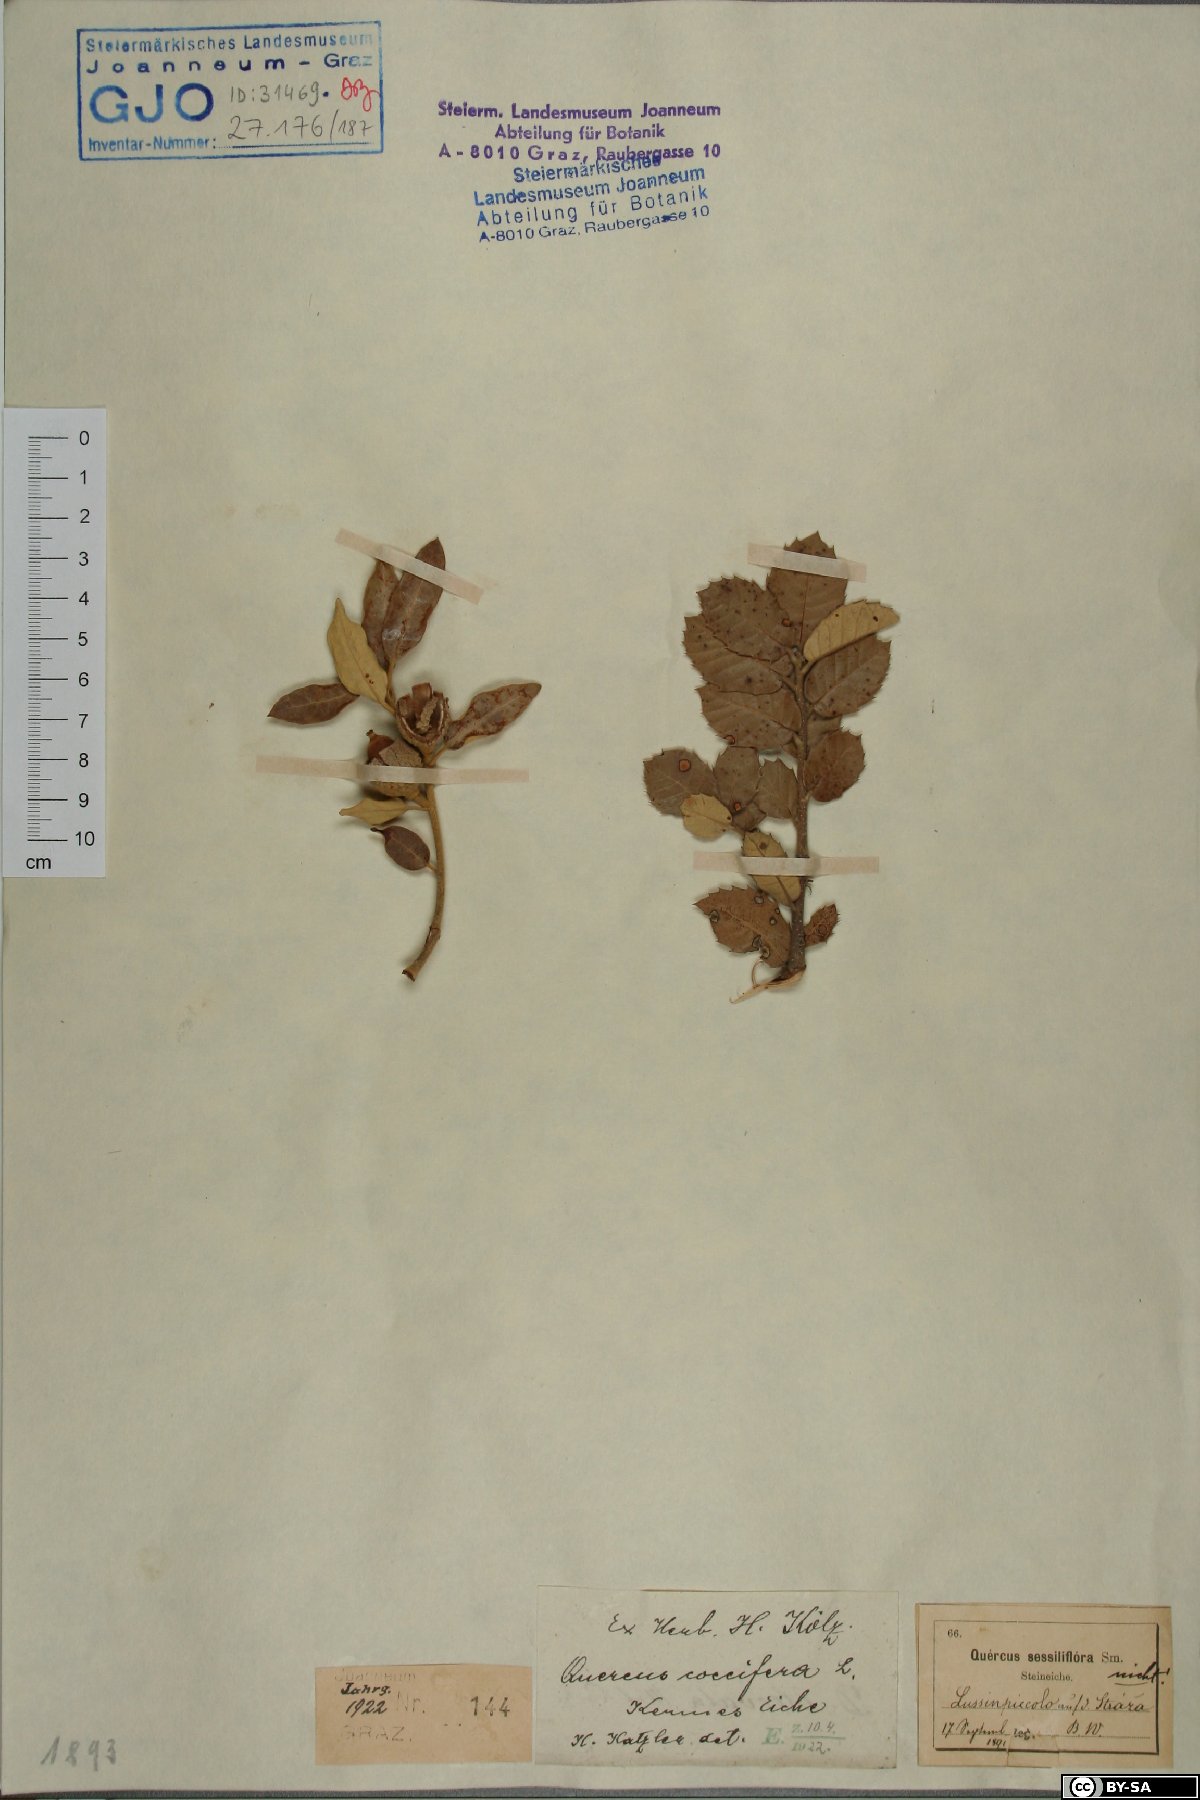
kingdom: Plantae
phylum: Tracheophyta
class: Magnoliopsida
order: Fagales
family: Fagaceae
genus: Quercus
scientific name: Quercus coccifera
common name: Kermes oak
